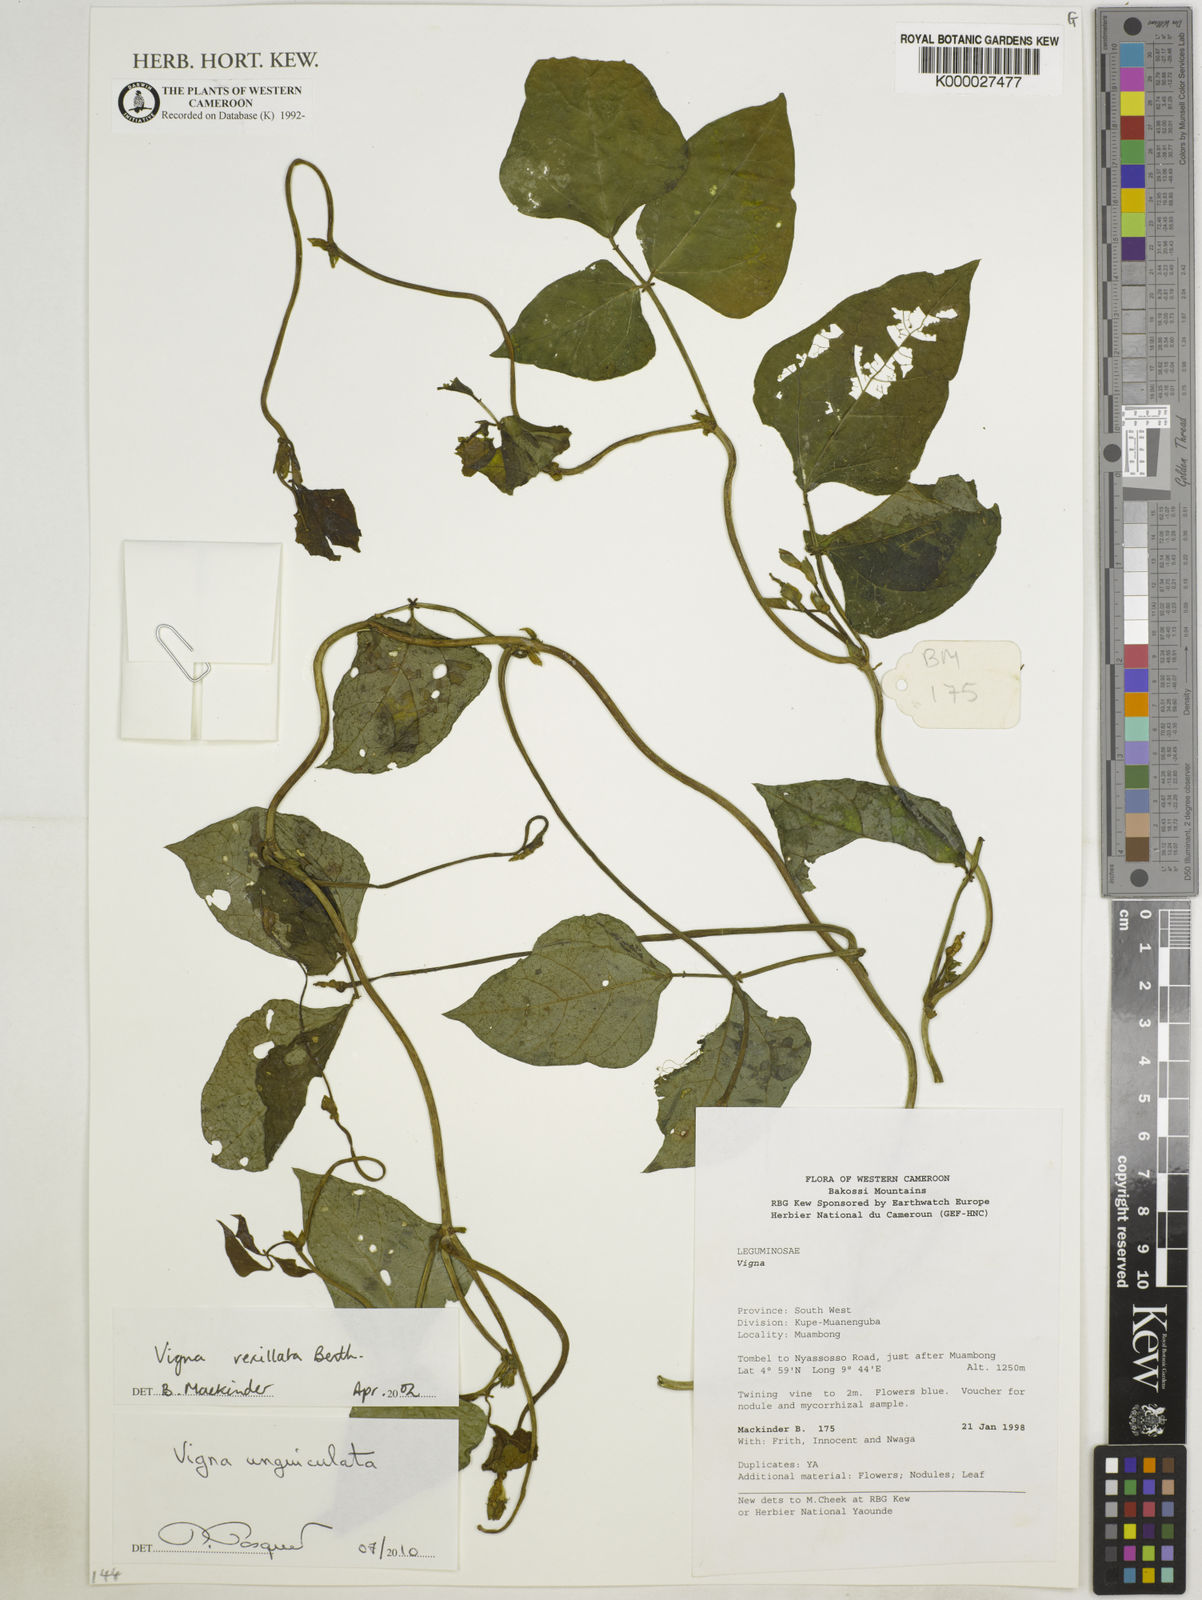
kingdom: Plantae
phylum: Tracheophyta
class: Magnoliopsida
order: Fabales
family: Fabaceae
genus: Vigna
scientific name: Vigna unguiculata
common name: Cowpea
